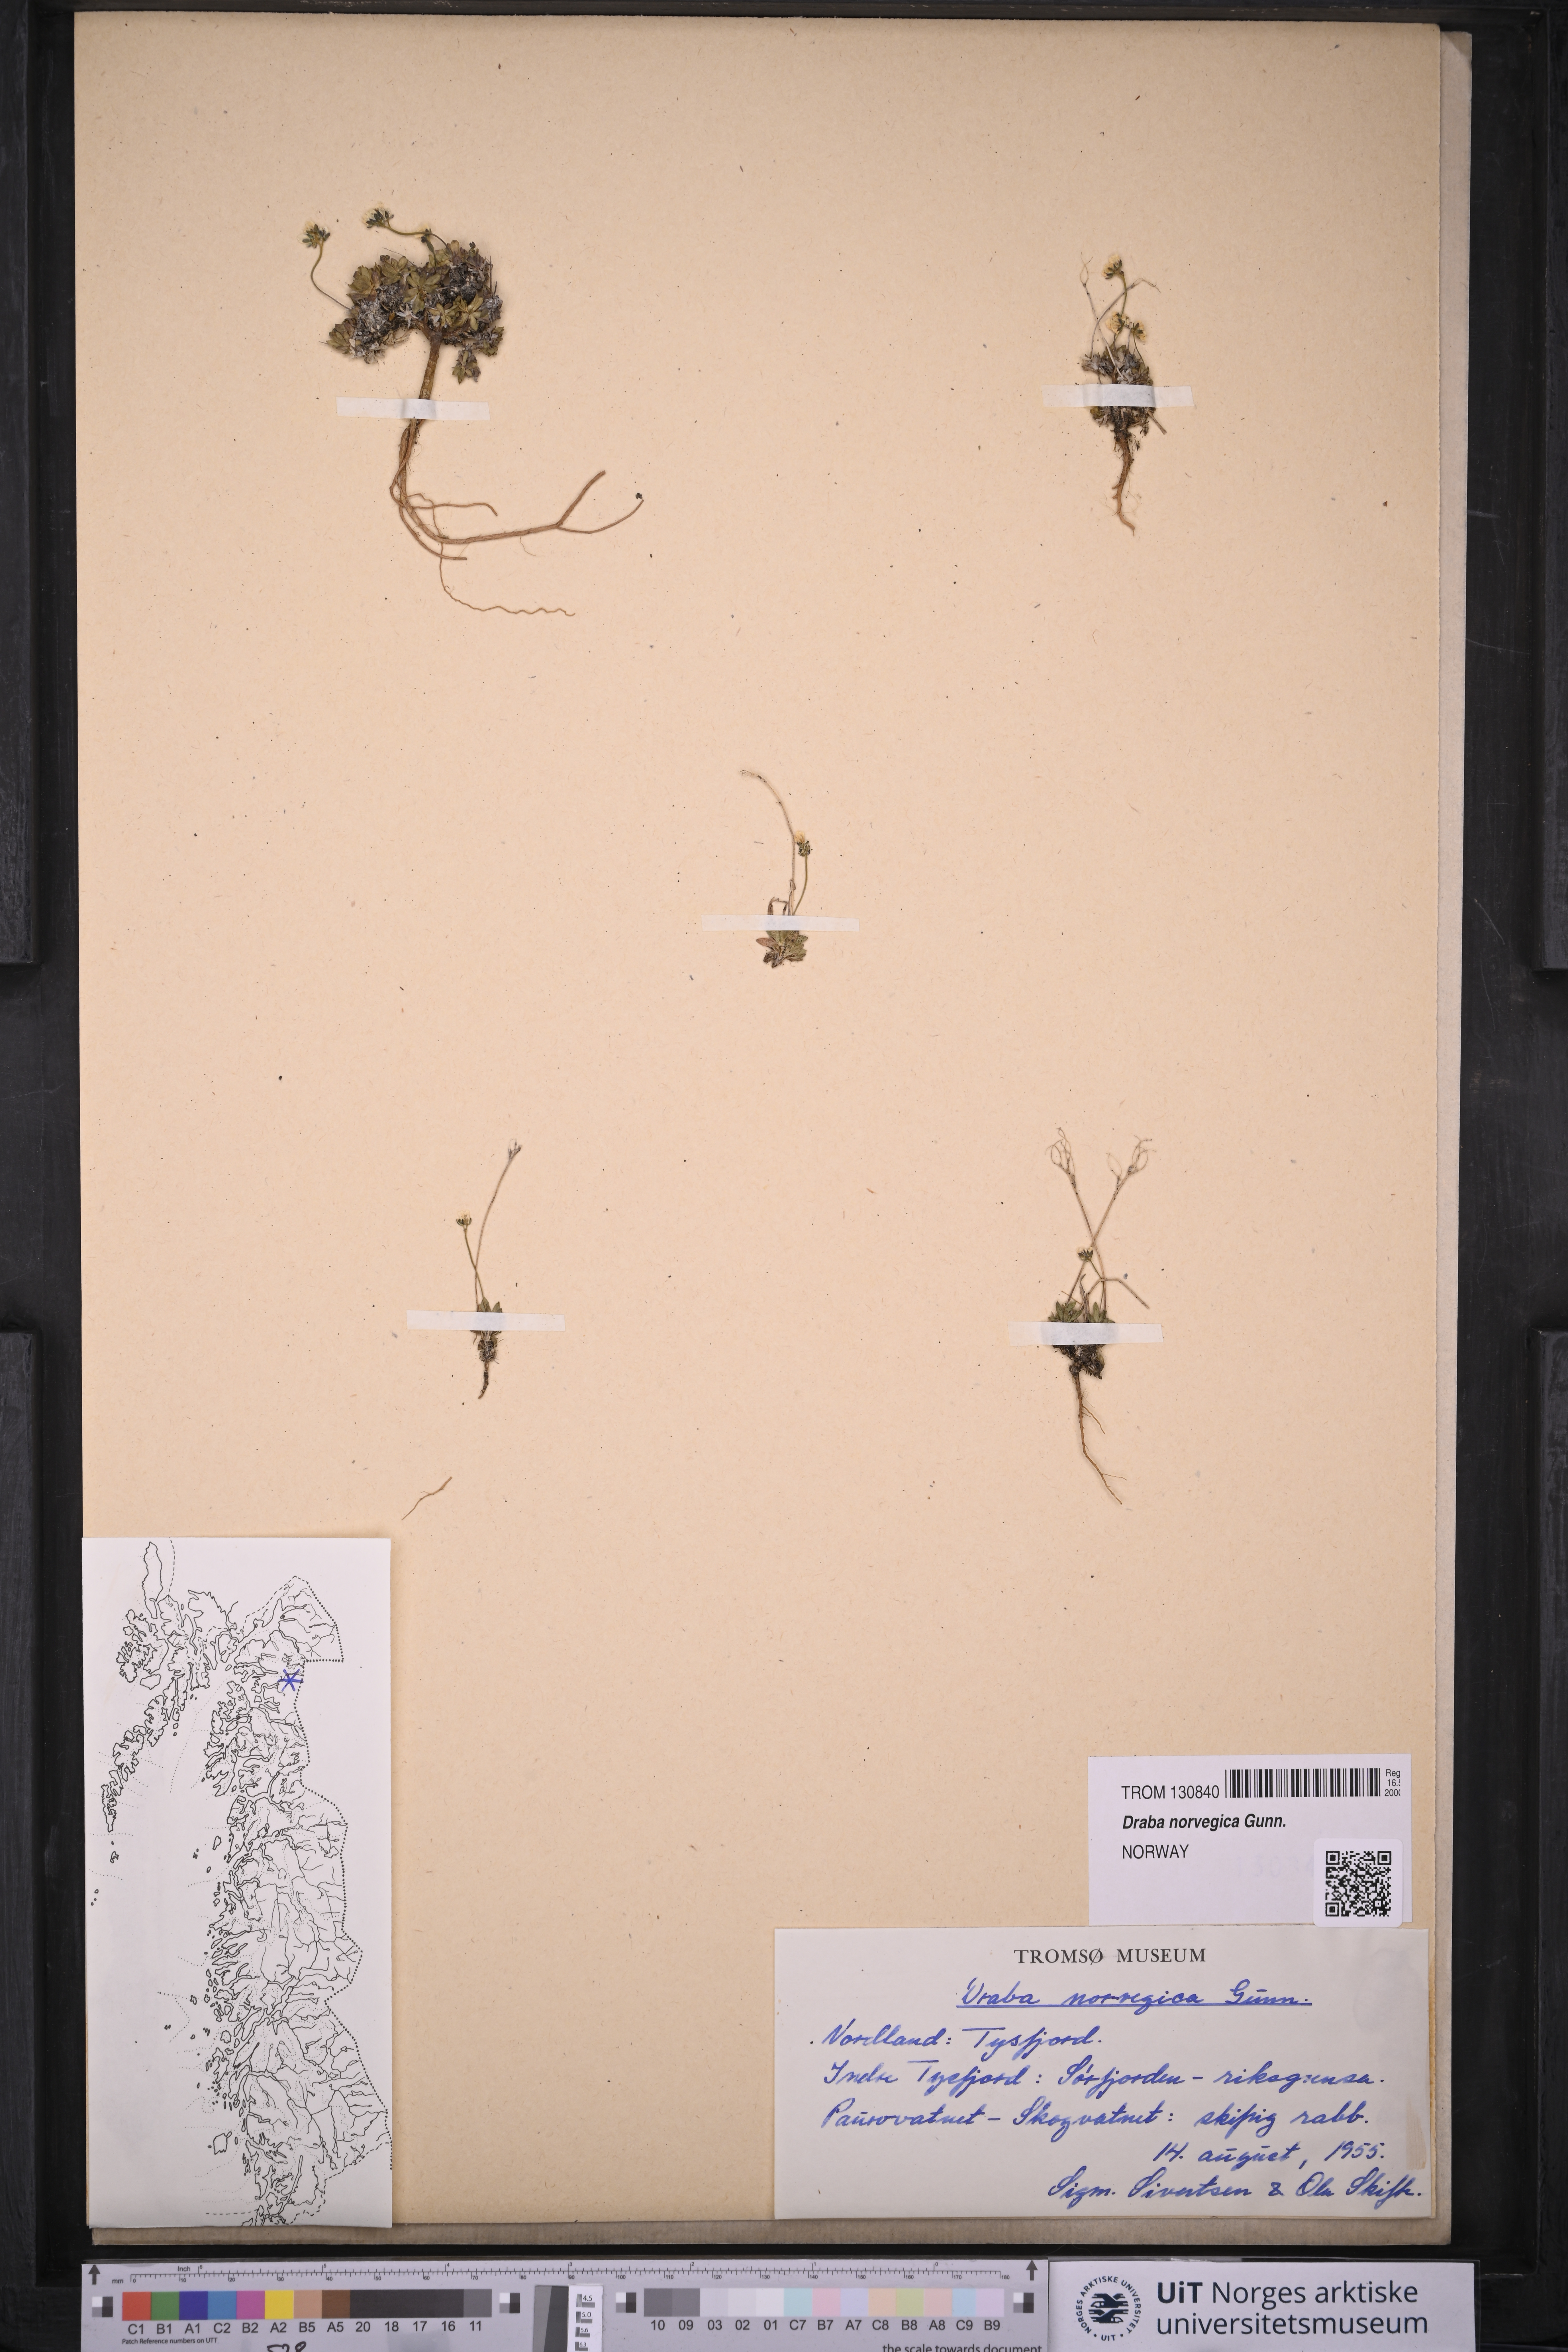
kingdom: Plantae
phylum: Tracheophyta
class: Magnoliopsida
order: Brassicales
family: Brassicaceae
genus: Draba
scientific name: Draba norvegica
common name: Rock whitlowgrass
